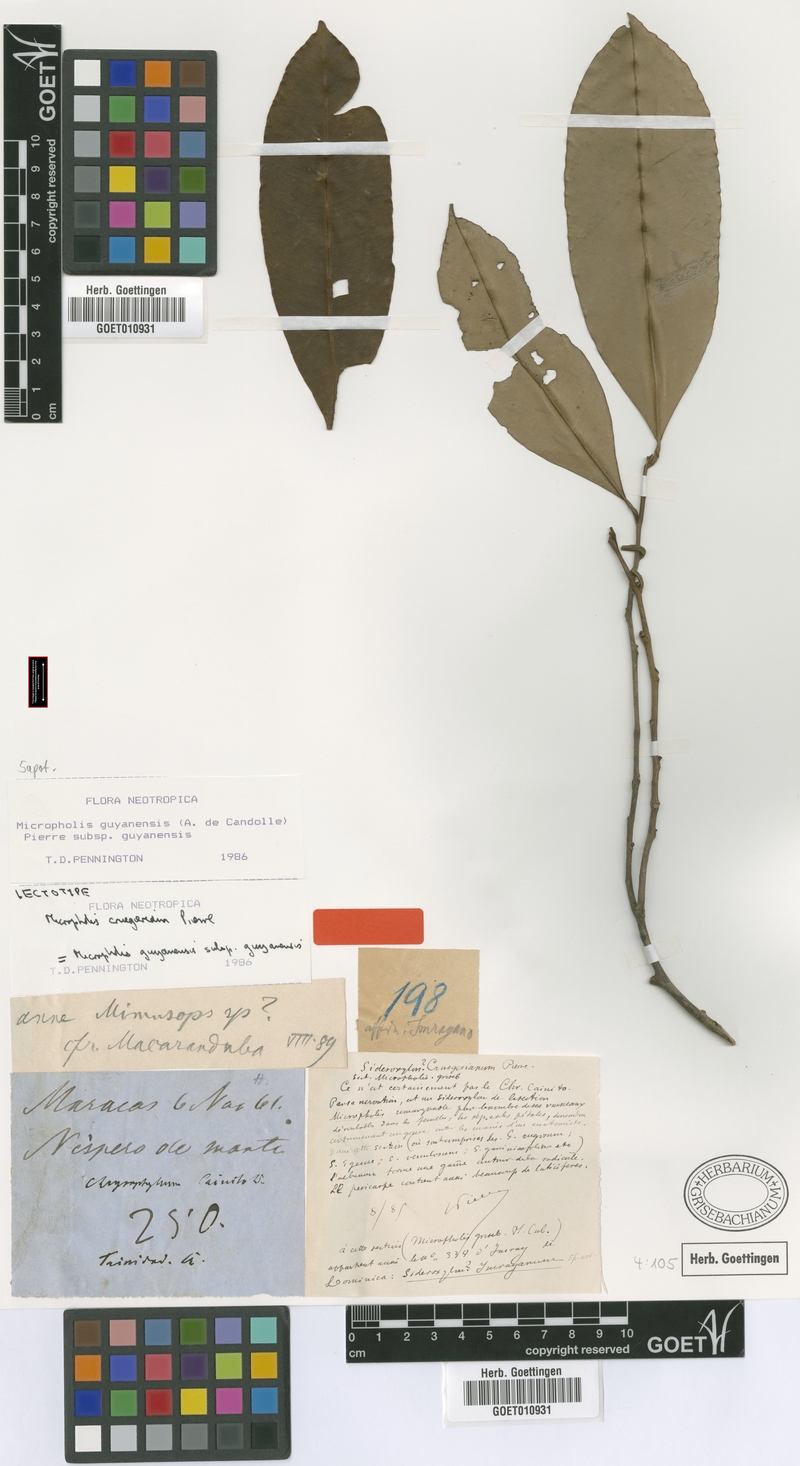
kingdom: Plantae
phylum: Tracheophyta
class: Magnoliopsida
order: Ericales
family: Sapotaceae
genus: Micropholis
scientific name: Micropholis guyanensis
